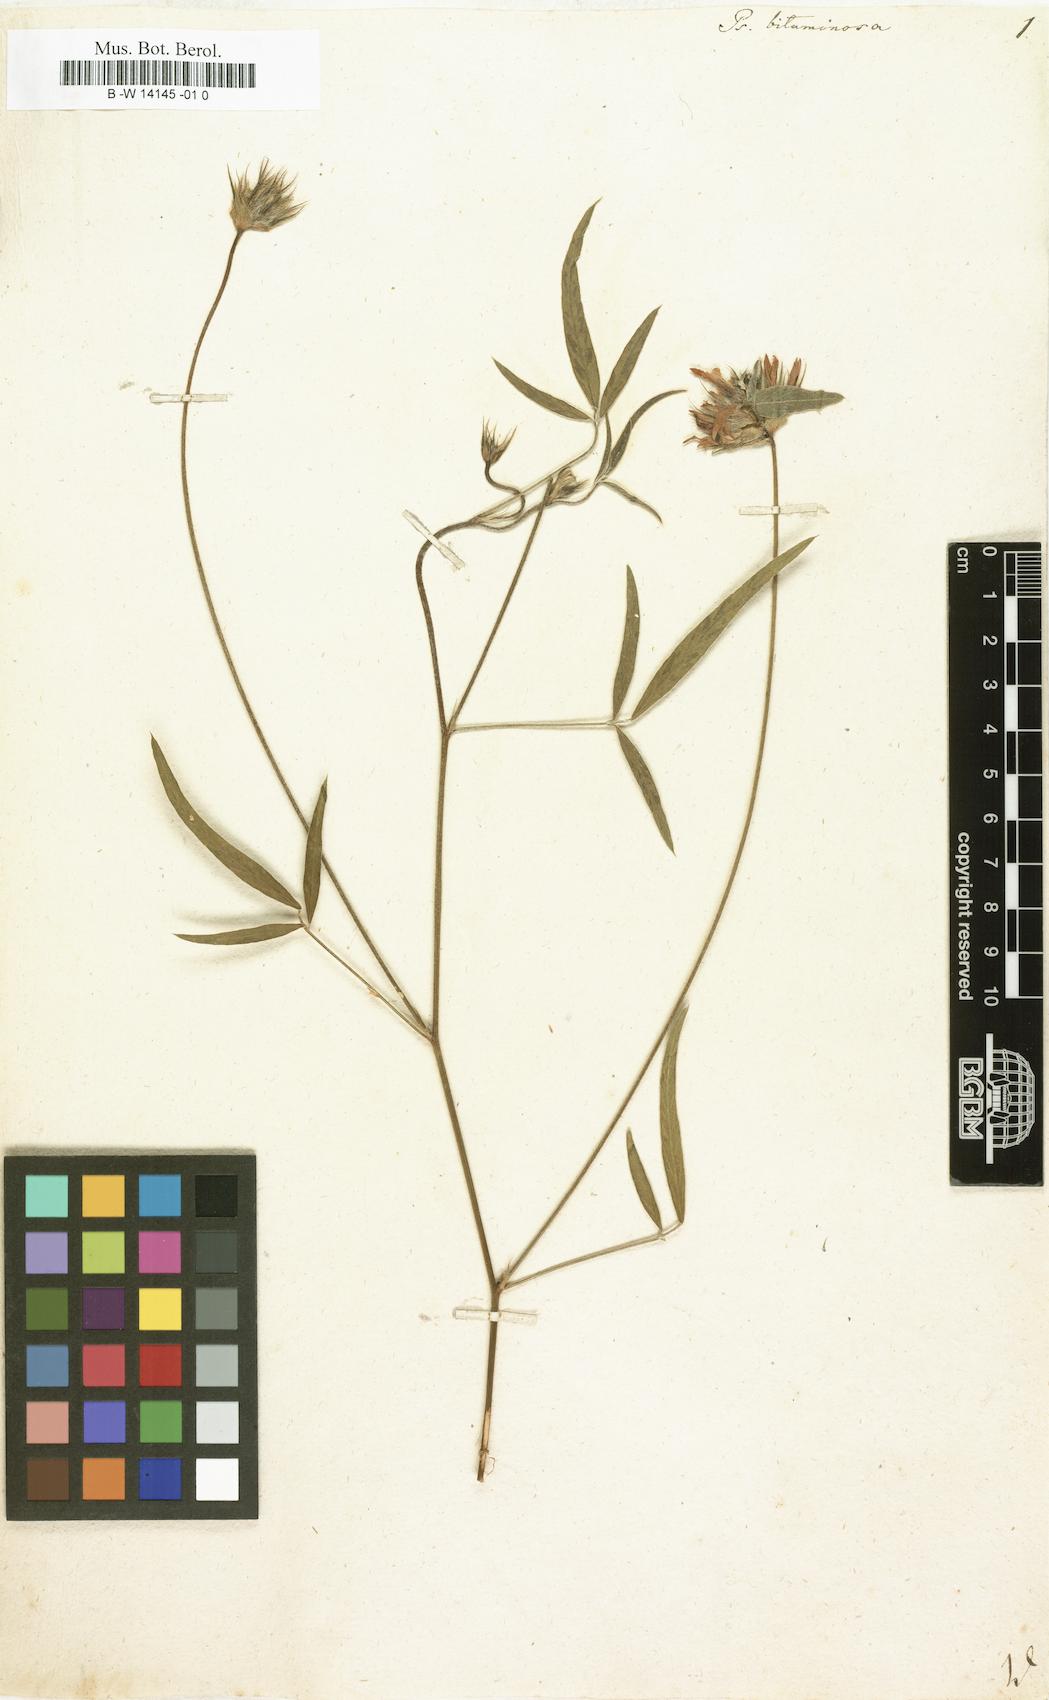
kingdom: Plantae
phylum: Tracheophyta
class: Magnoliopsida
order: Fabales
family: Fabaceae
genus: Bituminaria
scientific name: Bituminaria bituminosa
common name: Arabian pea
